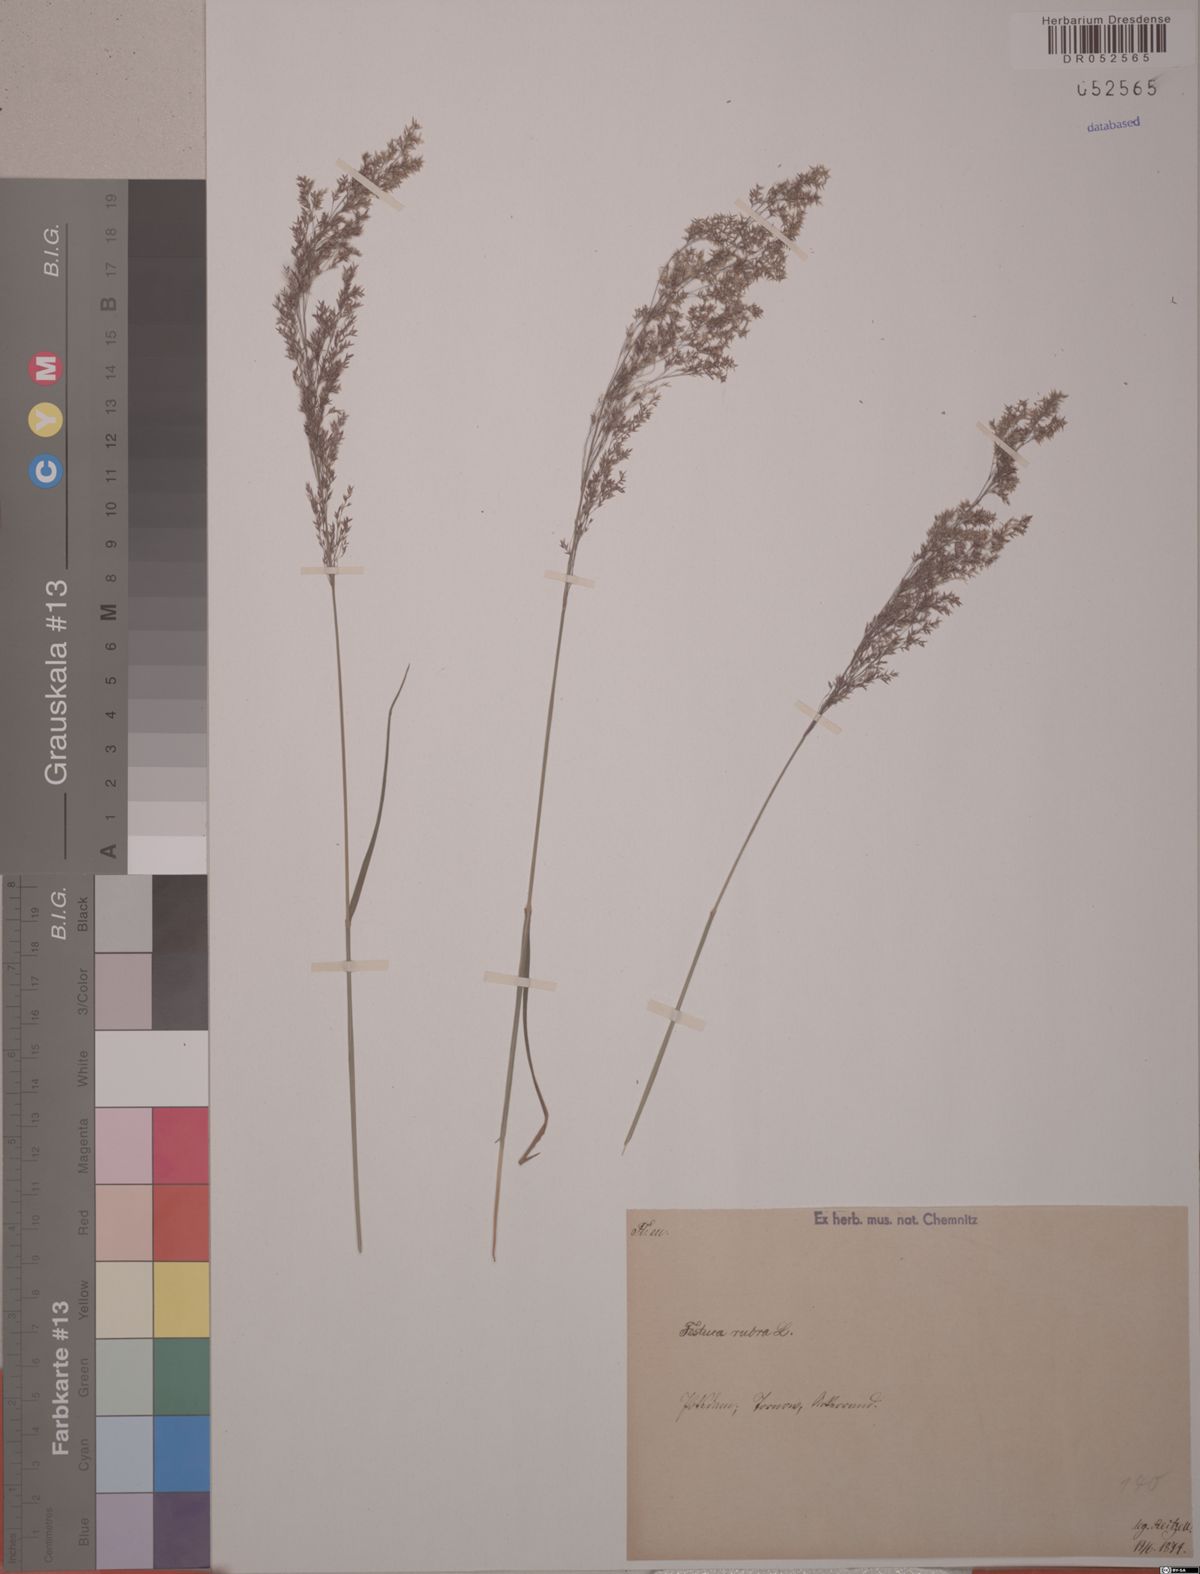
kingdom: Plantae
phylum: Tracheophyta
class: Liliopsida
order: Poales
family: Poaceae
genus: Festuca
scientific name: Festuca rubra
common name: Red fescue
